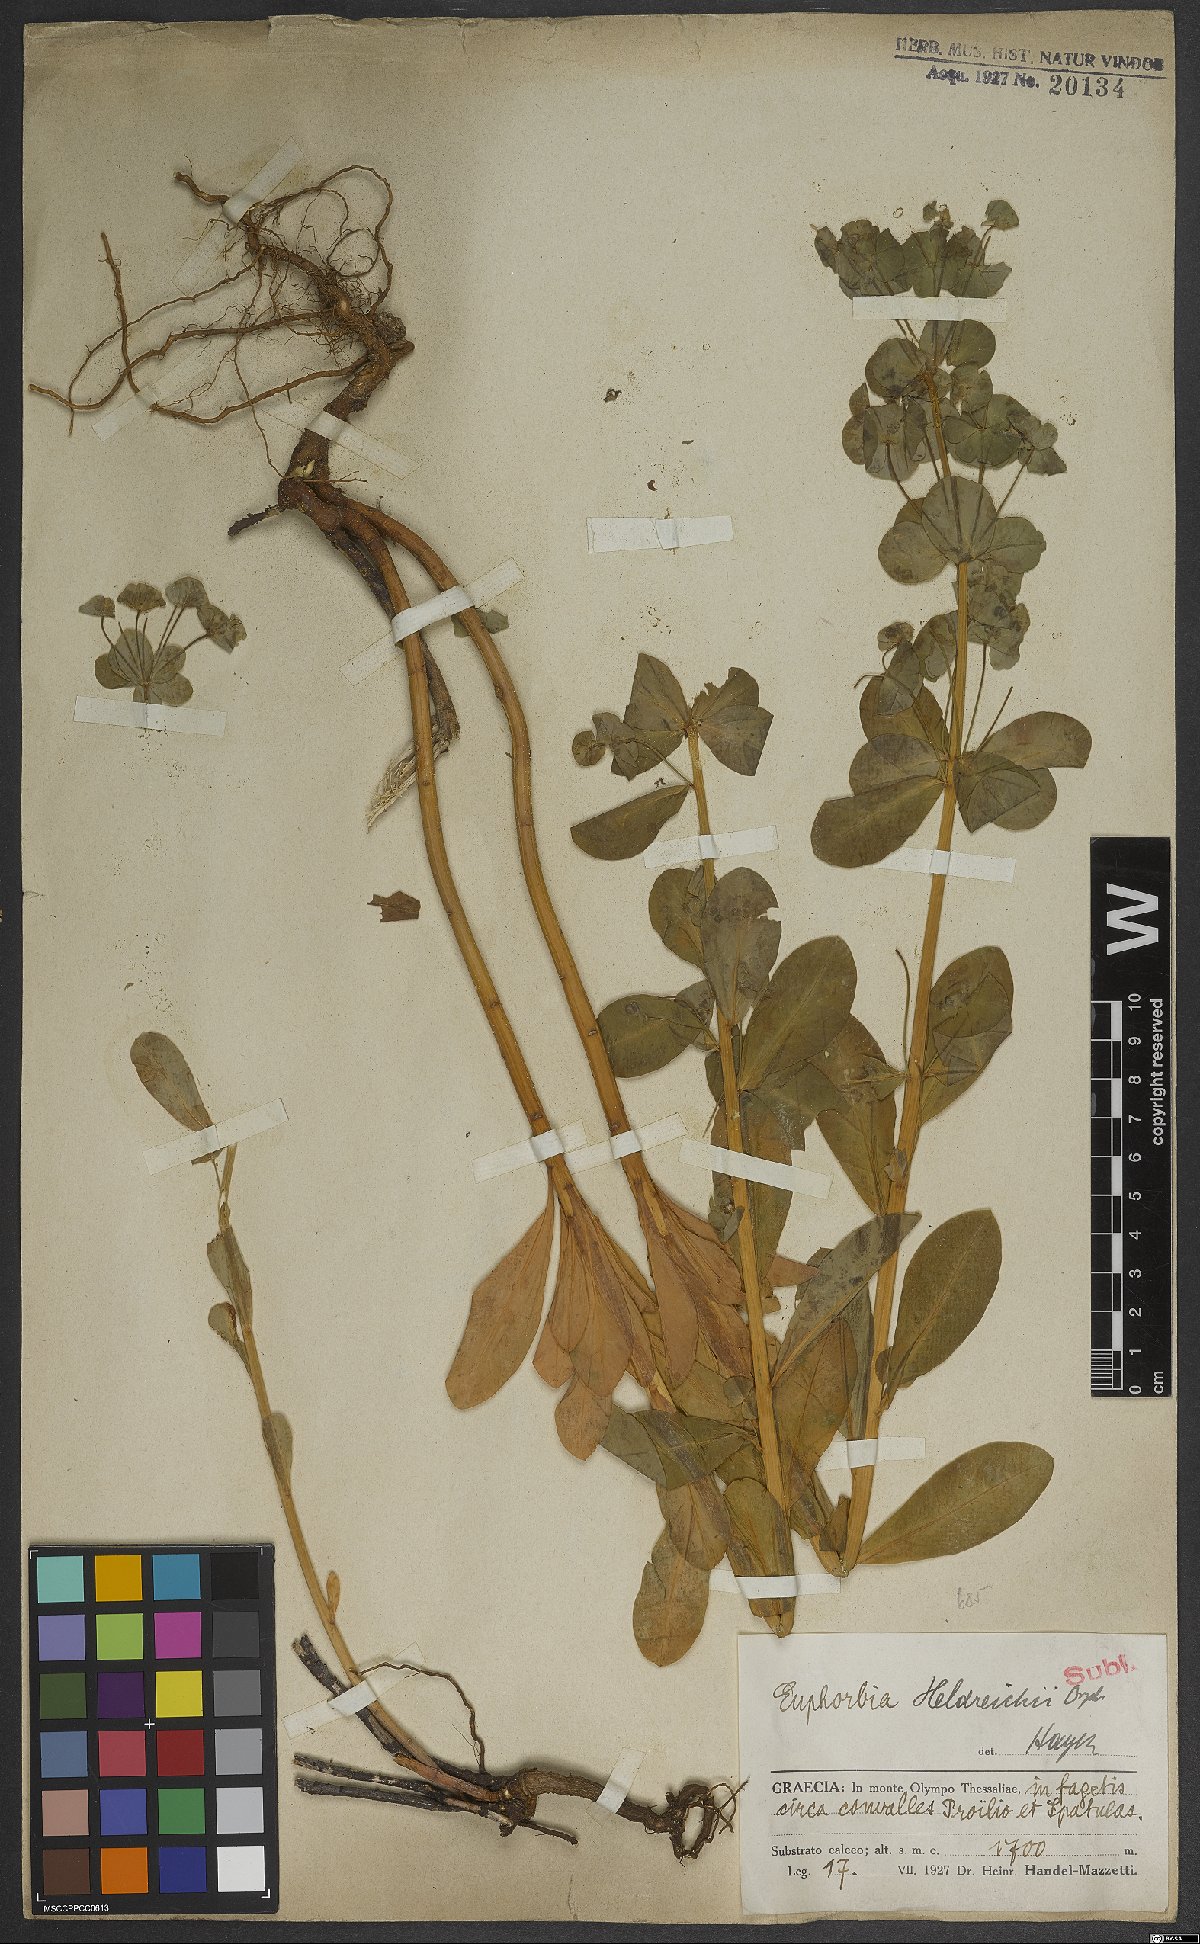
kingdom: Plantae
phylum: Tracheophyta
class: Magnoliopsida
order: Malpighiales
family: Euphorbiaceae
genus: Euphorbia
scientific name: Euphorbia heldreichii
